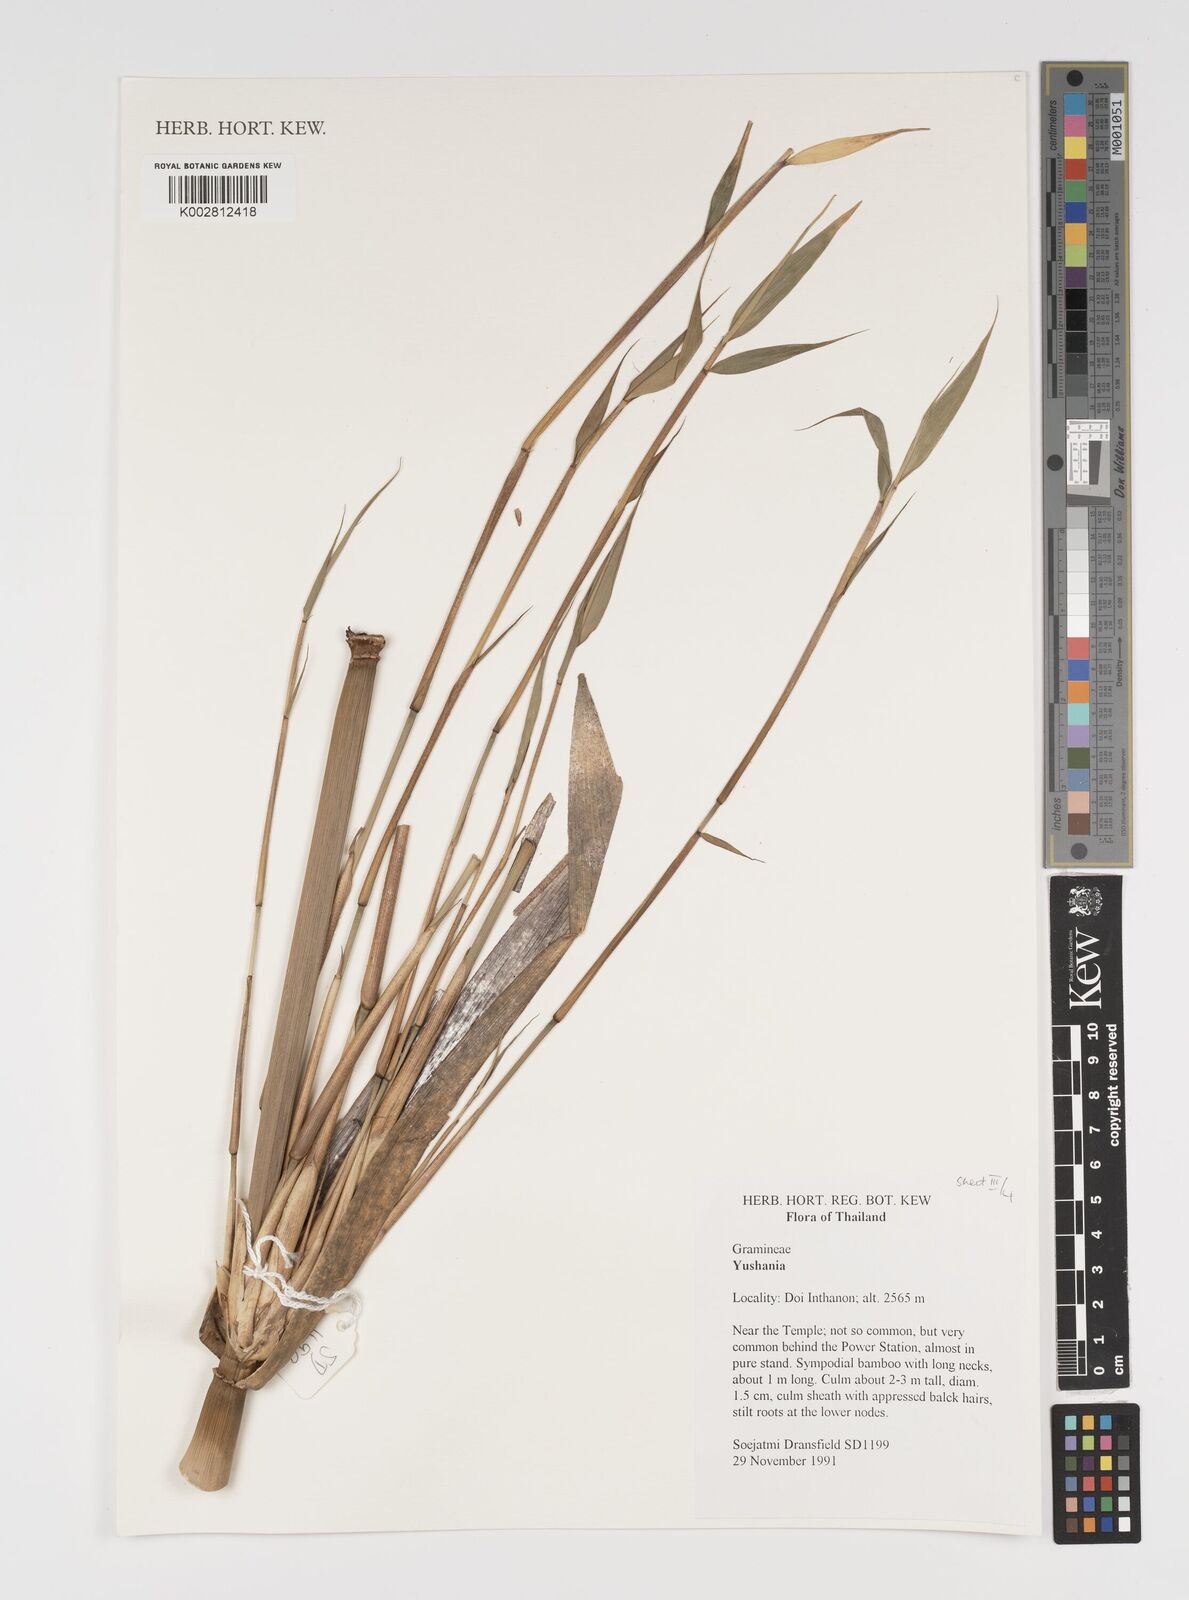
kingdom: Plantae
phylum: Tracheophyta
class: Liliopsida
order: Poales
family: Poaceae
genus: Yushania
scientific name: Yushania
